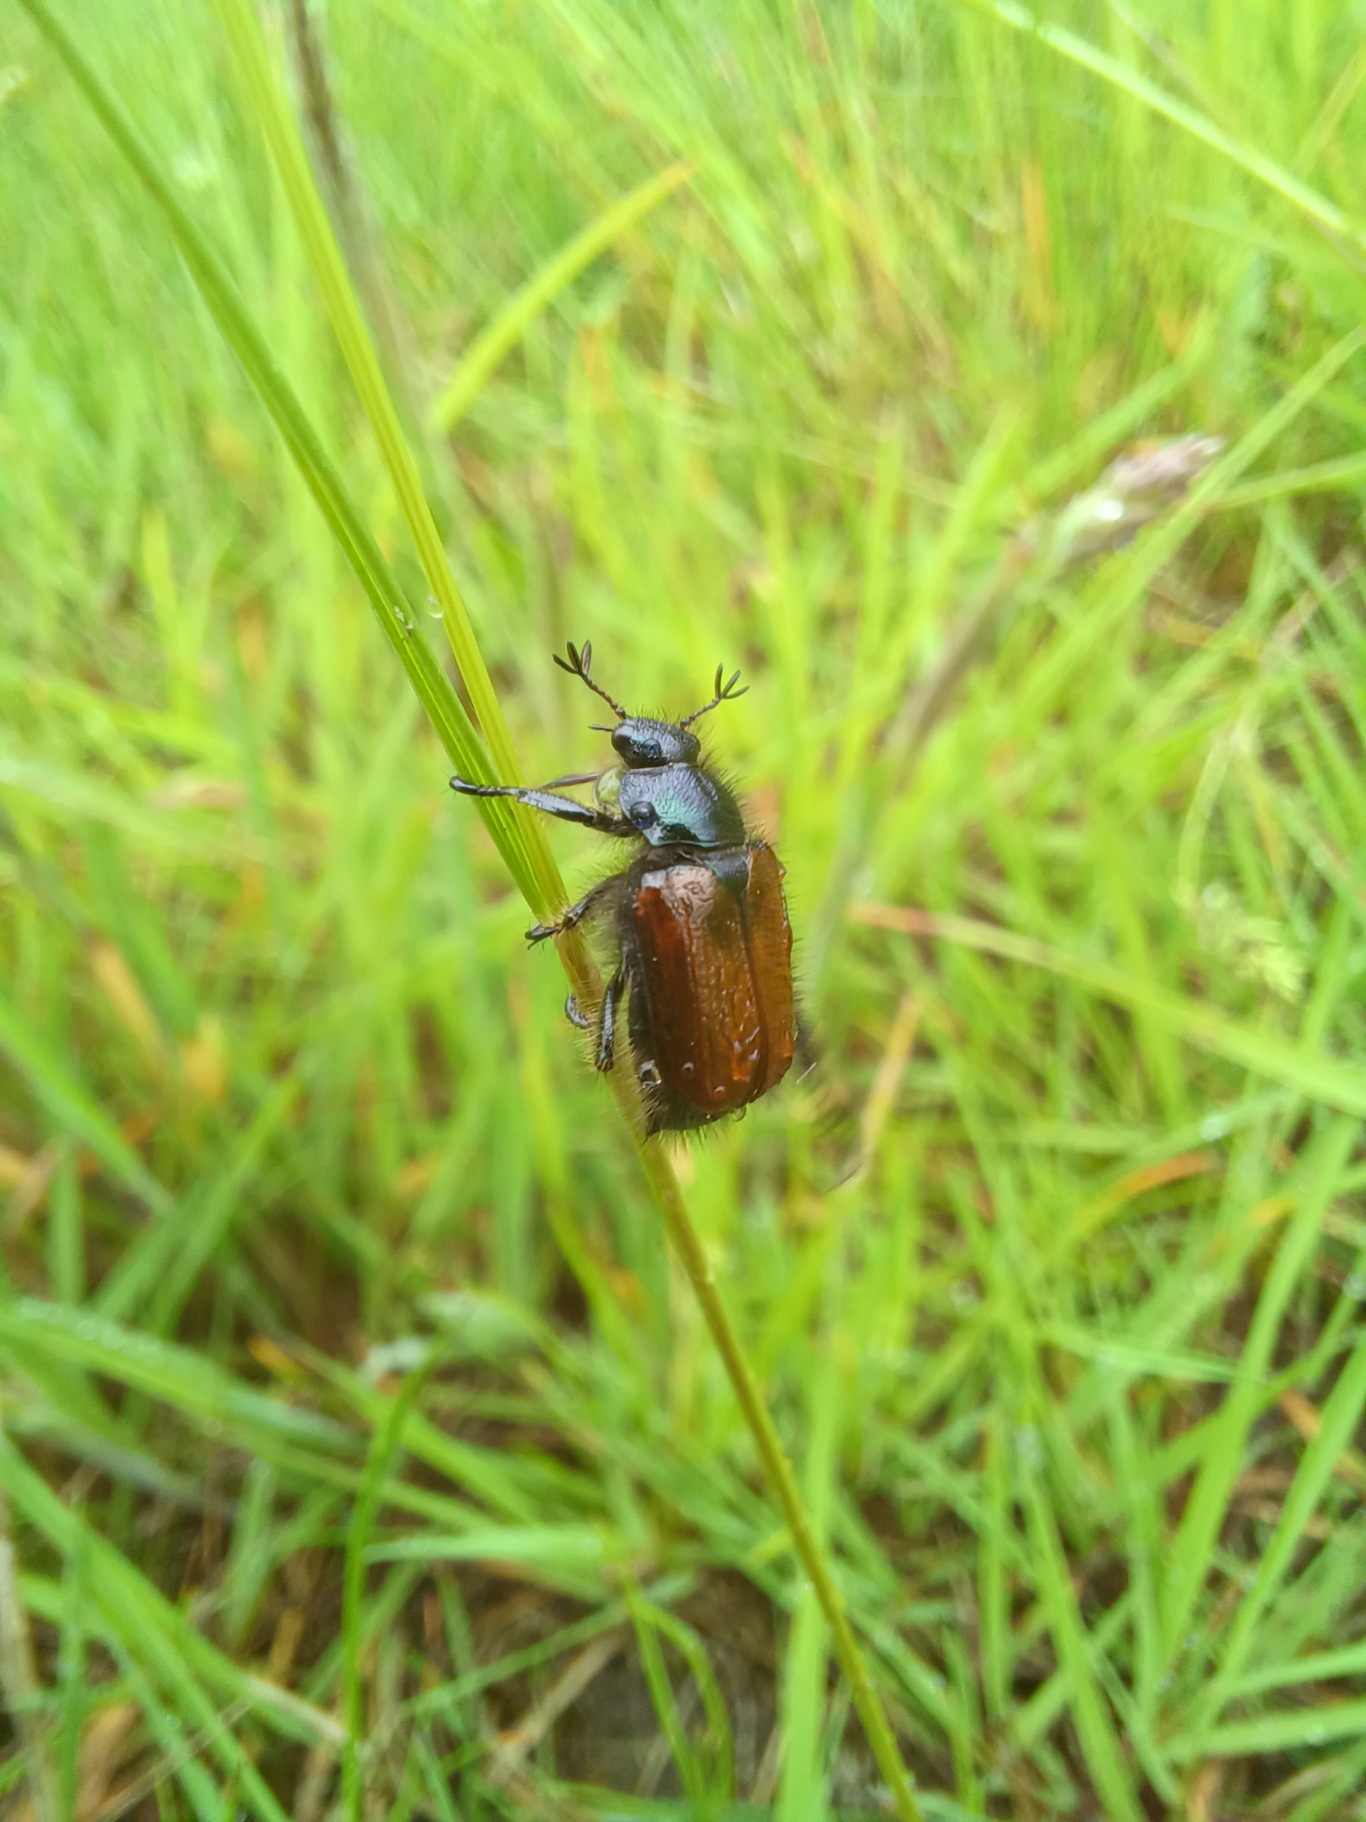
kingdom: Animalia
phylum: Arthropoda
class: Insecta
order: Coleoptera
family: Scarabaeidae
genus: Phyllopertha
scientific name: Phyllopertha horticola
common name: Gåsebille
